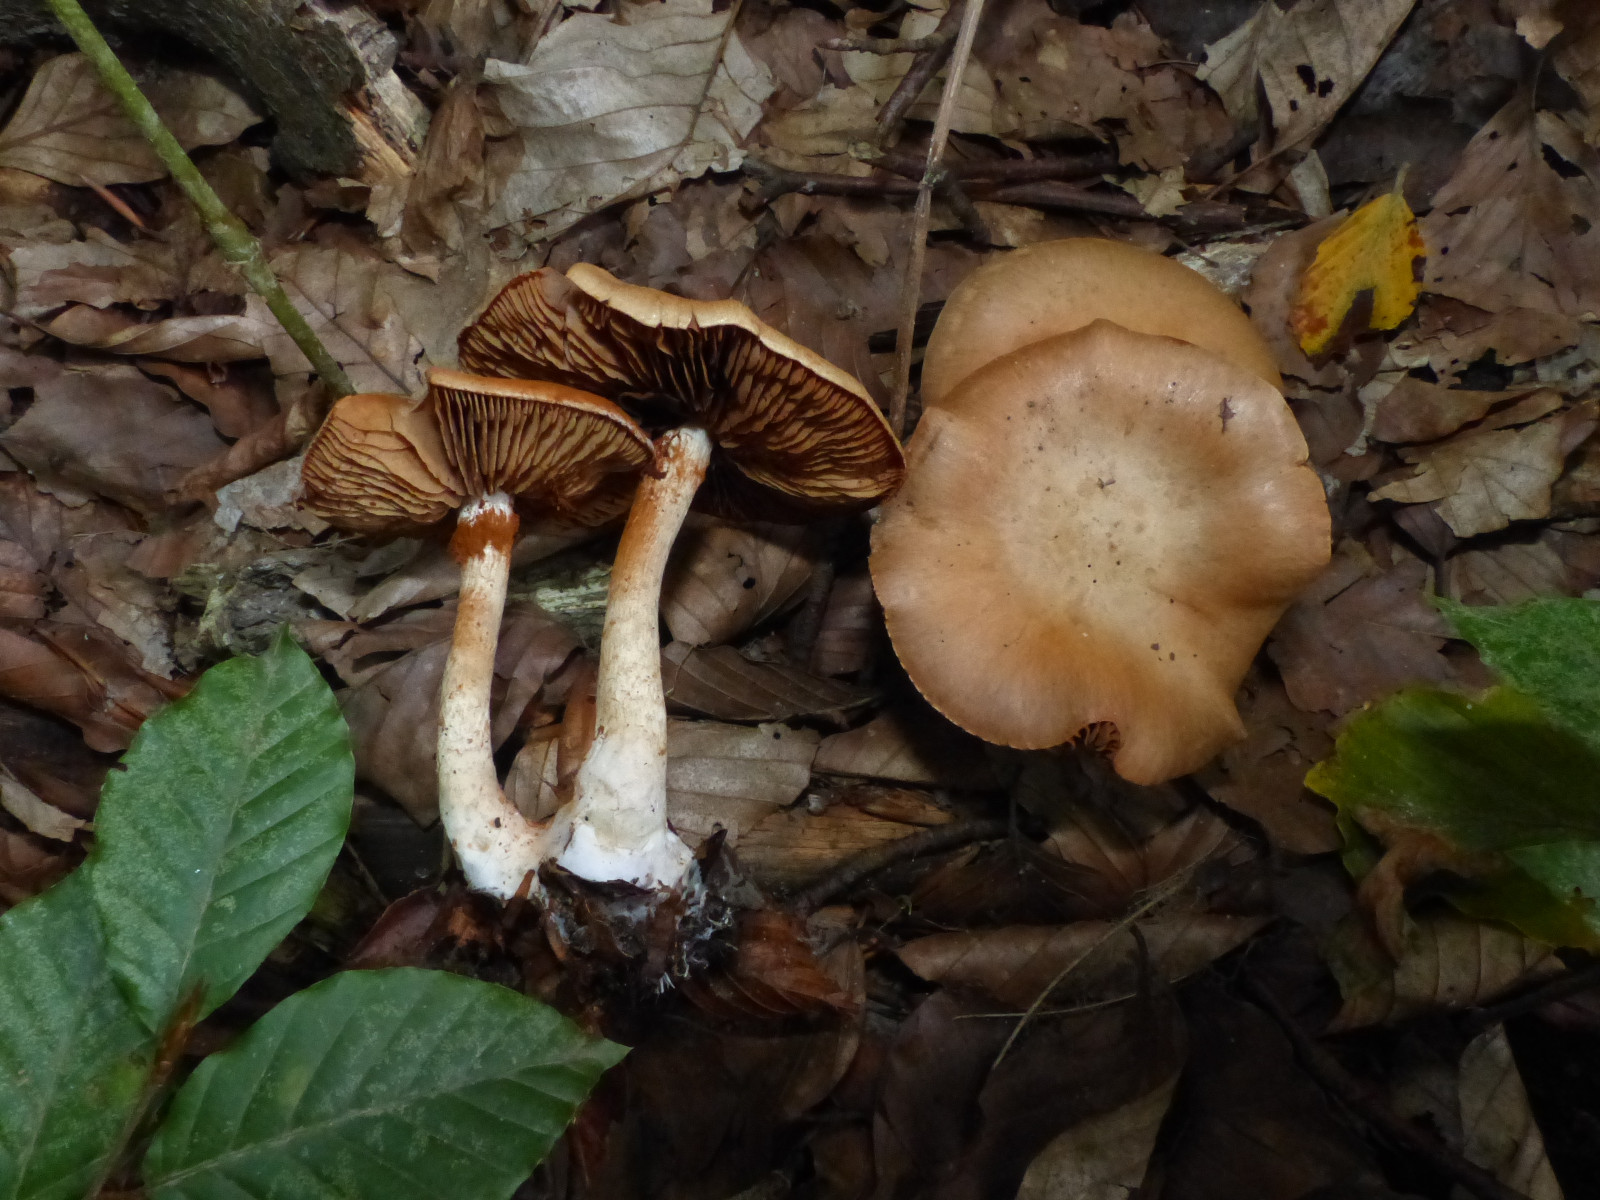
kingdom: Fungi
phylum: Basidiomycota
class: Agaricomycetes
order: Agaricales
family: Cortinariaceae
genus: Cortinarius
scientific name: Cortinarius
